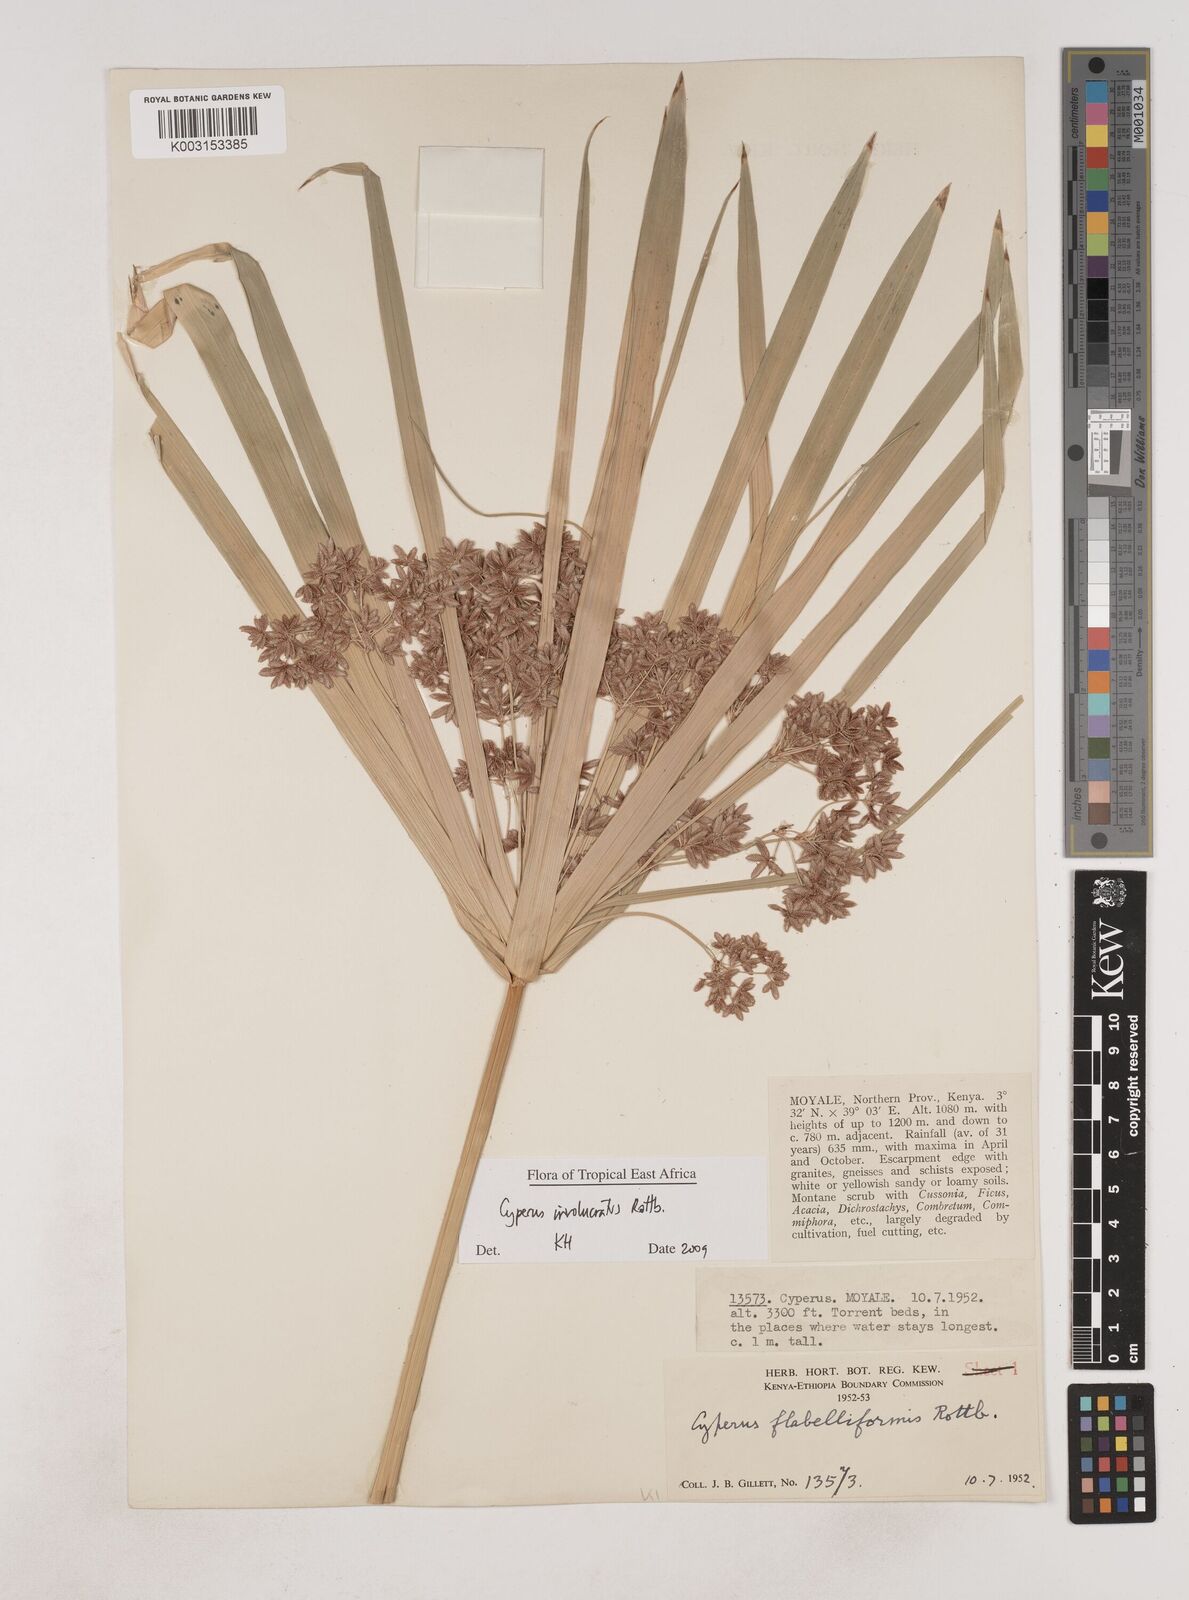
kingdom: Plantae
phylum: Tracheophyta
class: Liliopsida
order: Poales
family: Cyperaceae
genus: Cyperus
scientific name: Cyperus alternifolius
